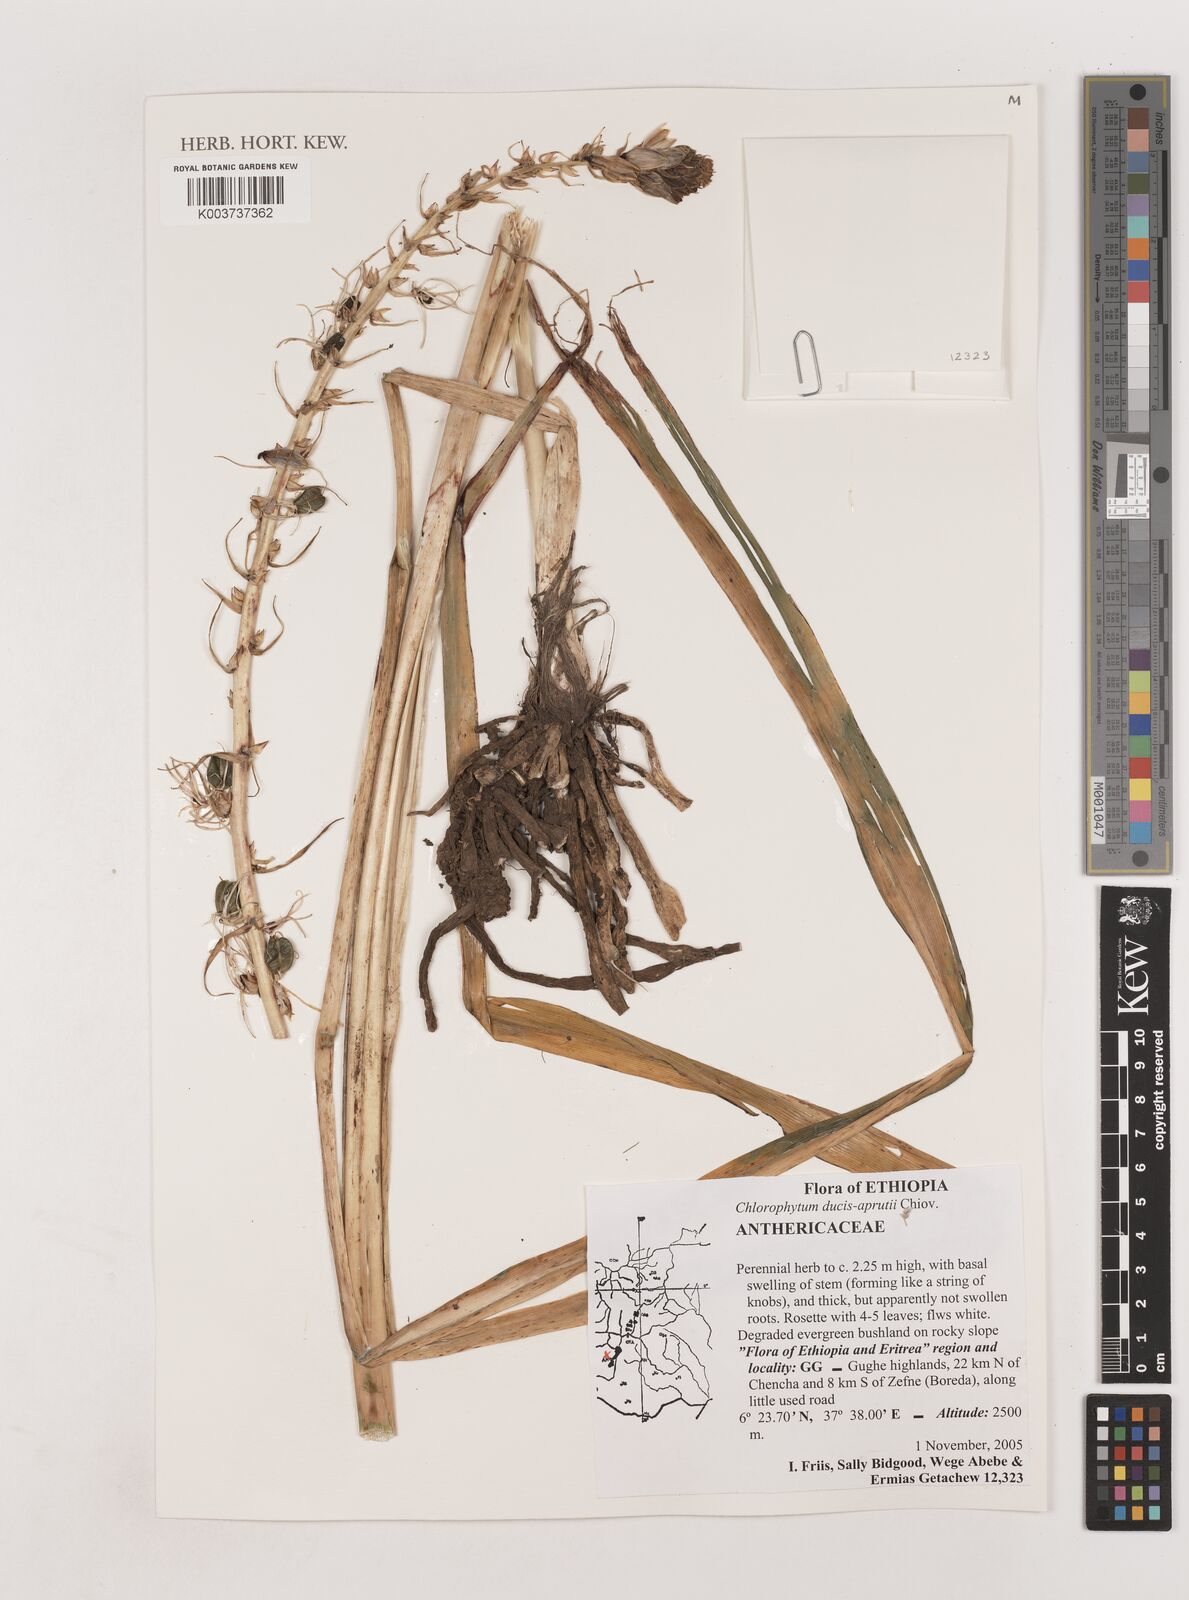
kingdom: Plantae
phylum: Tracheophyta
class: Liliopsida
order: Asparagales
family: Asparagaceae
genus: Chlorophytum
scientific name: Chlorophytum ducis-aprutii
